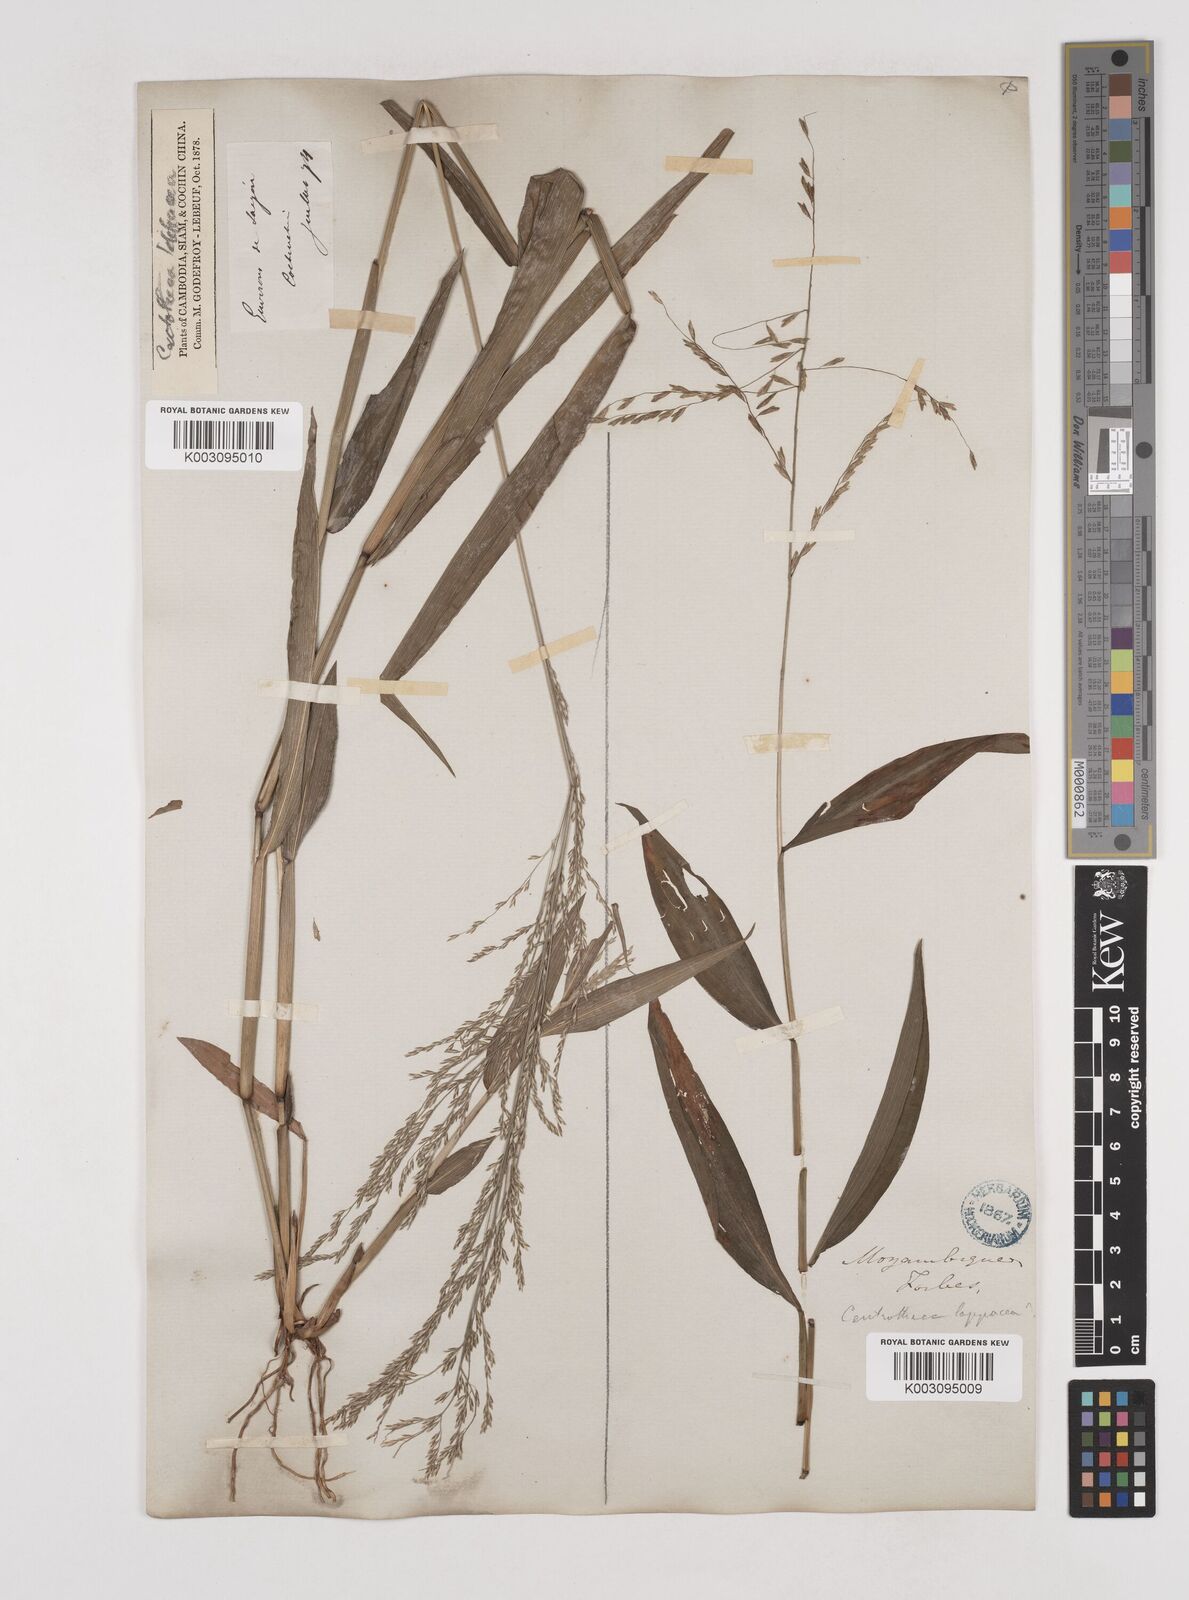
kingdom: Plantae
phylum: Tracheophyta
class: Liliopsida
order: Poales
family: Poaceae
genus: Centotheca
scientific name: Centotheca lappacea
